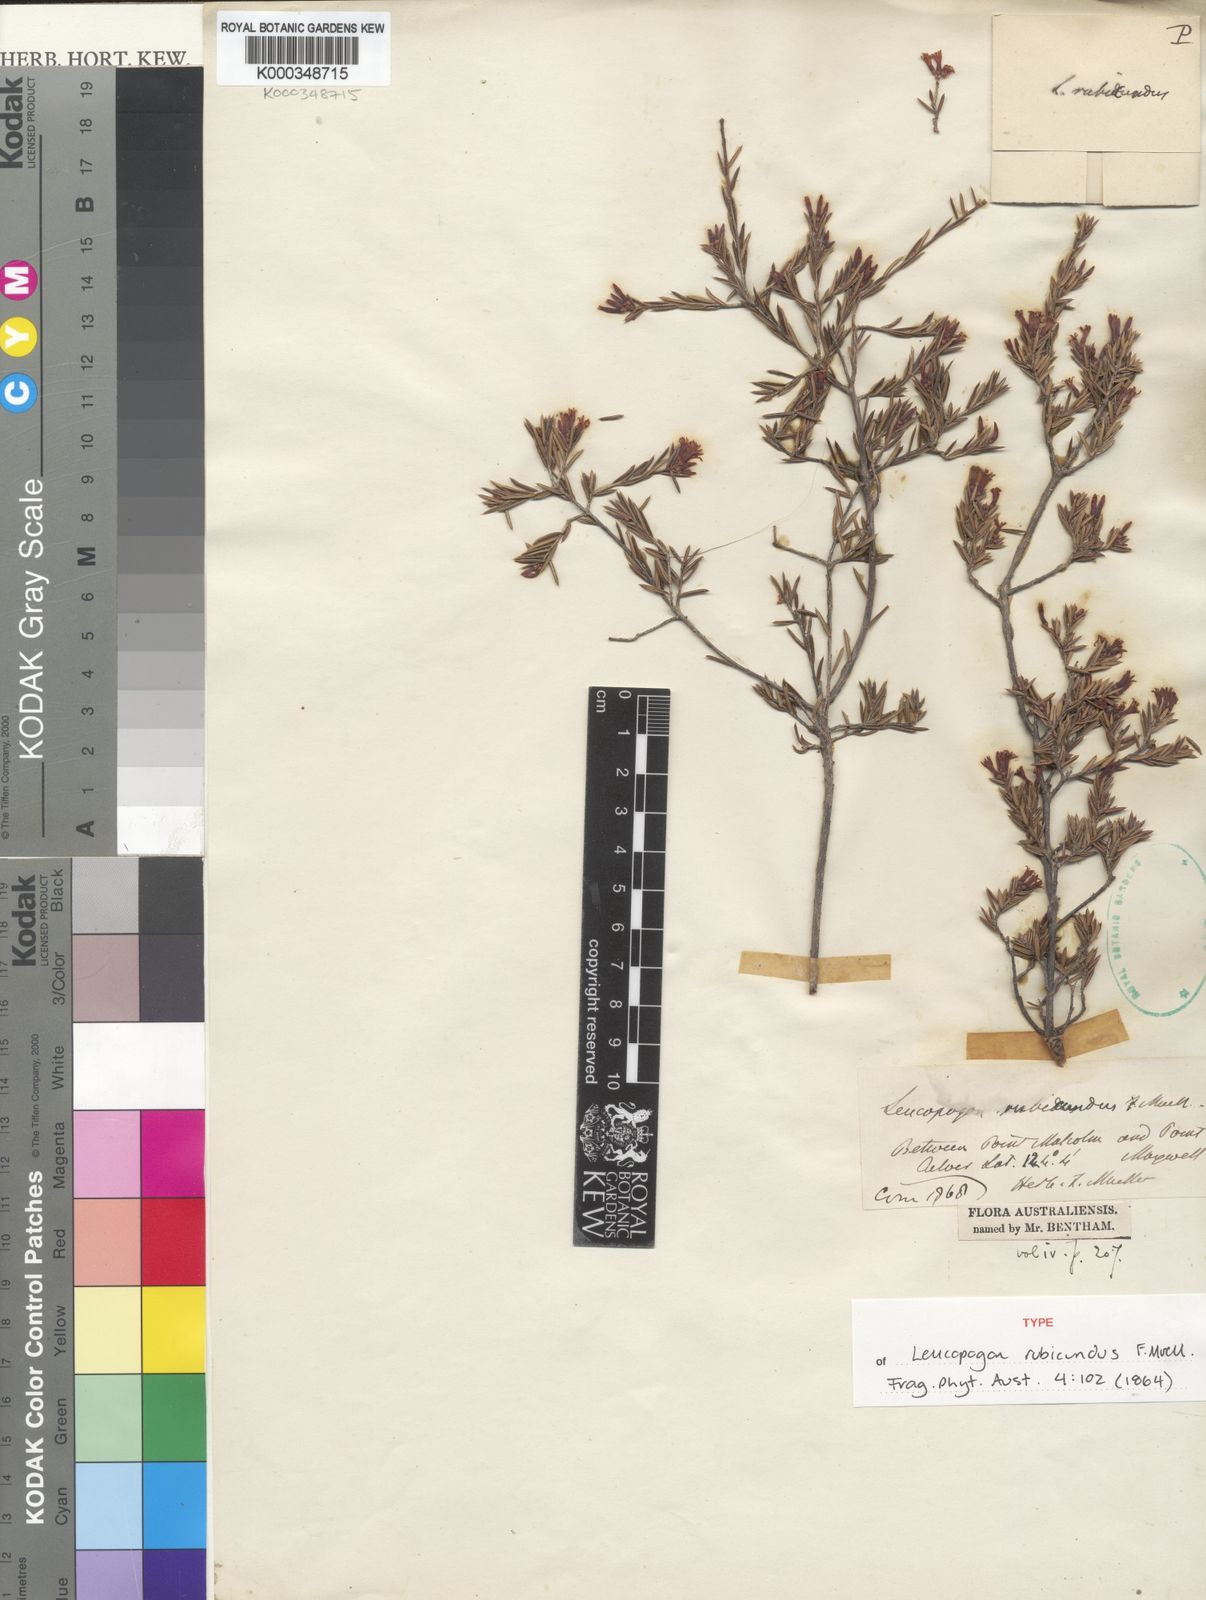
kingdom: Plantae
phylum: Tracheophyta
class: Magnoliopsida
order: Ericales
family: Ericaceae
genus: Styphelia
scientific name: Styphelia erubescens
